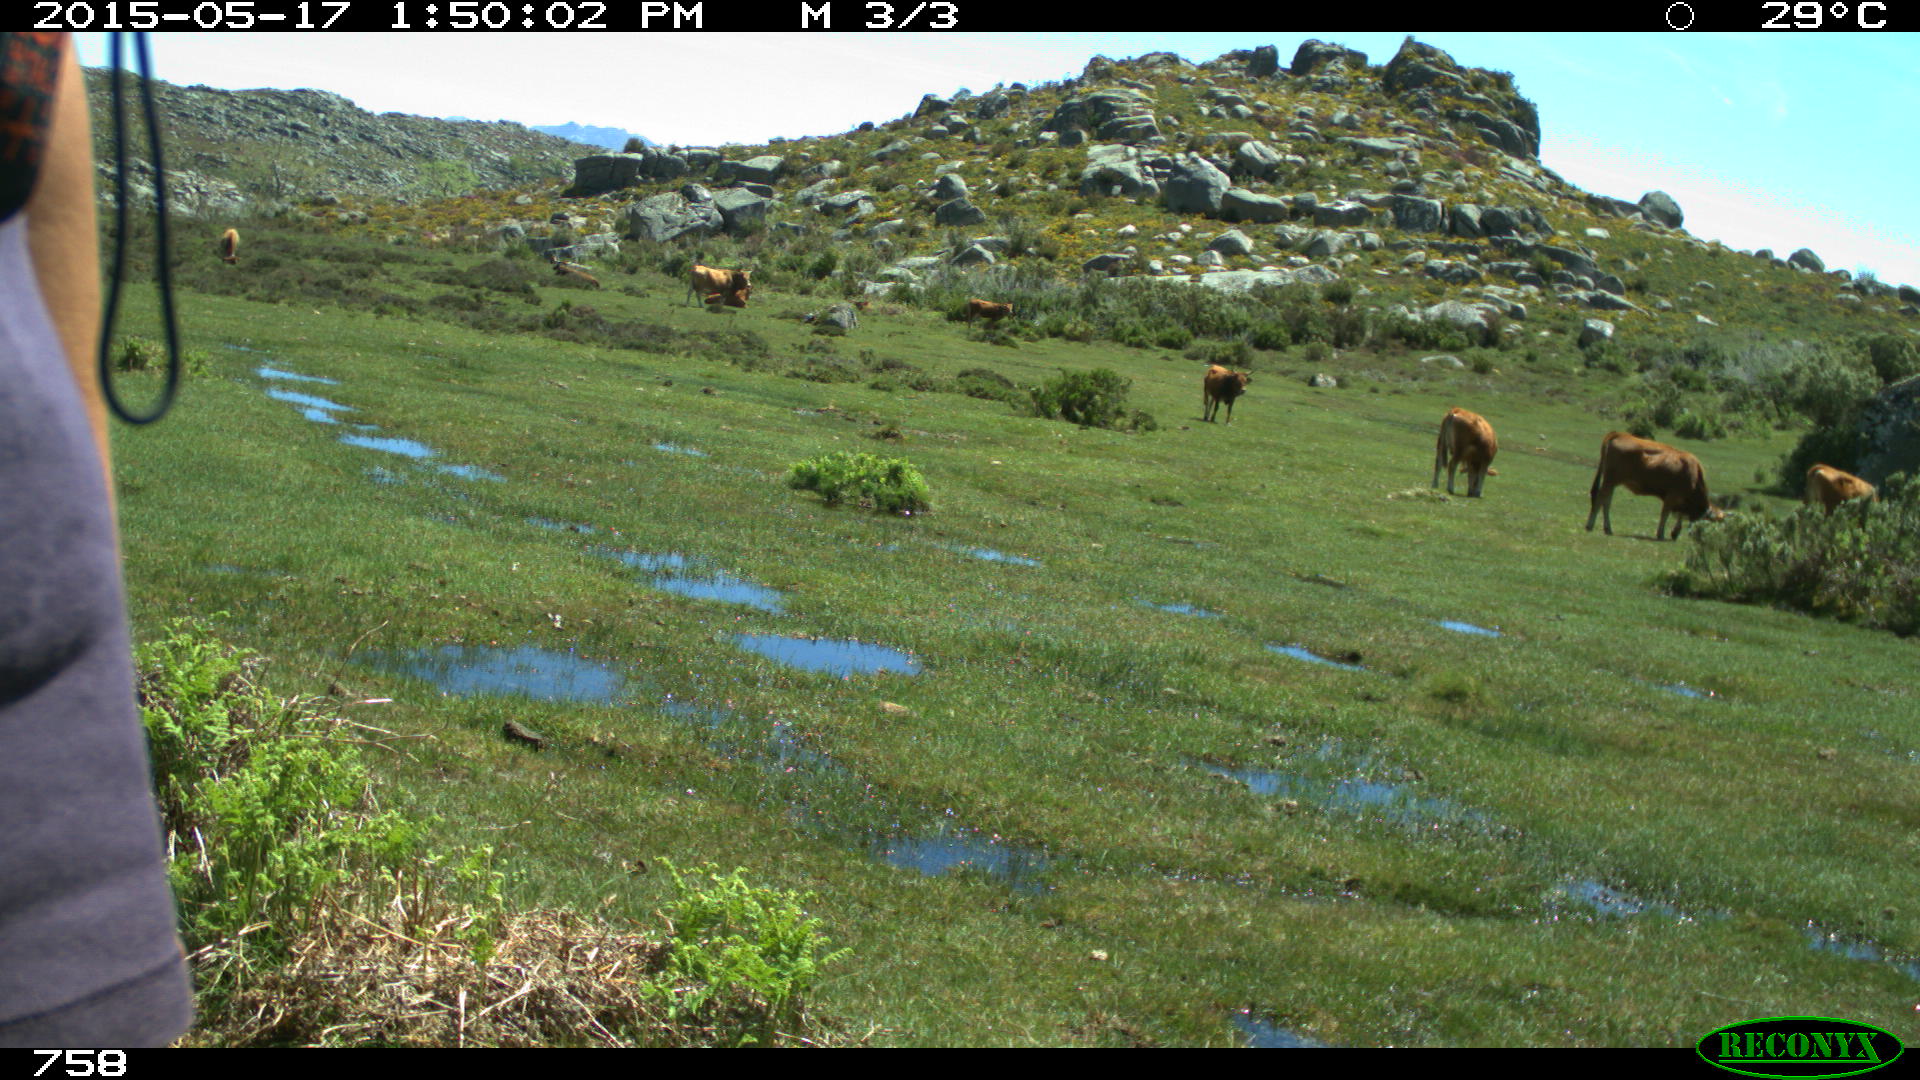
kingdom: Animalia
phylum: Chordata
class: Mammalia
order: Perissodactyla
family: Equidae
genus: Equus
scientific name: Equus caballus
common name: Horse
